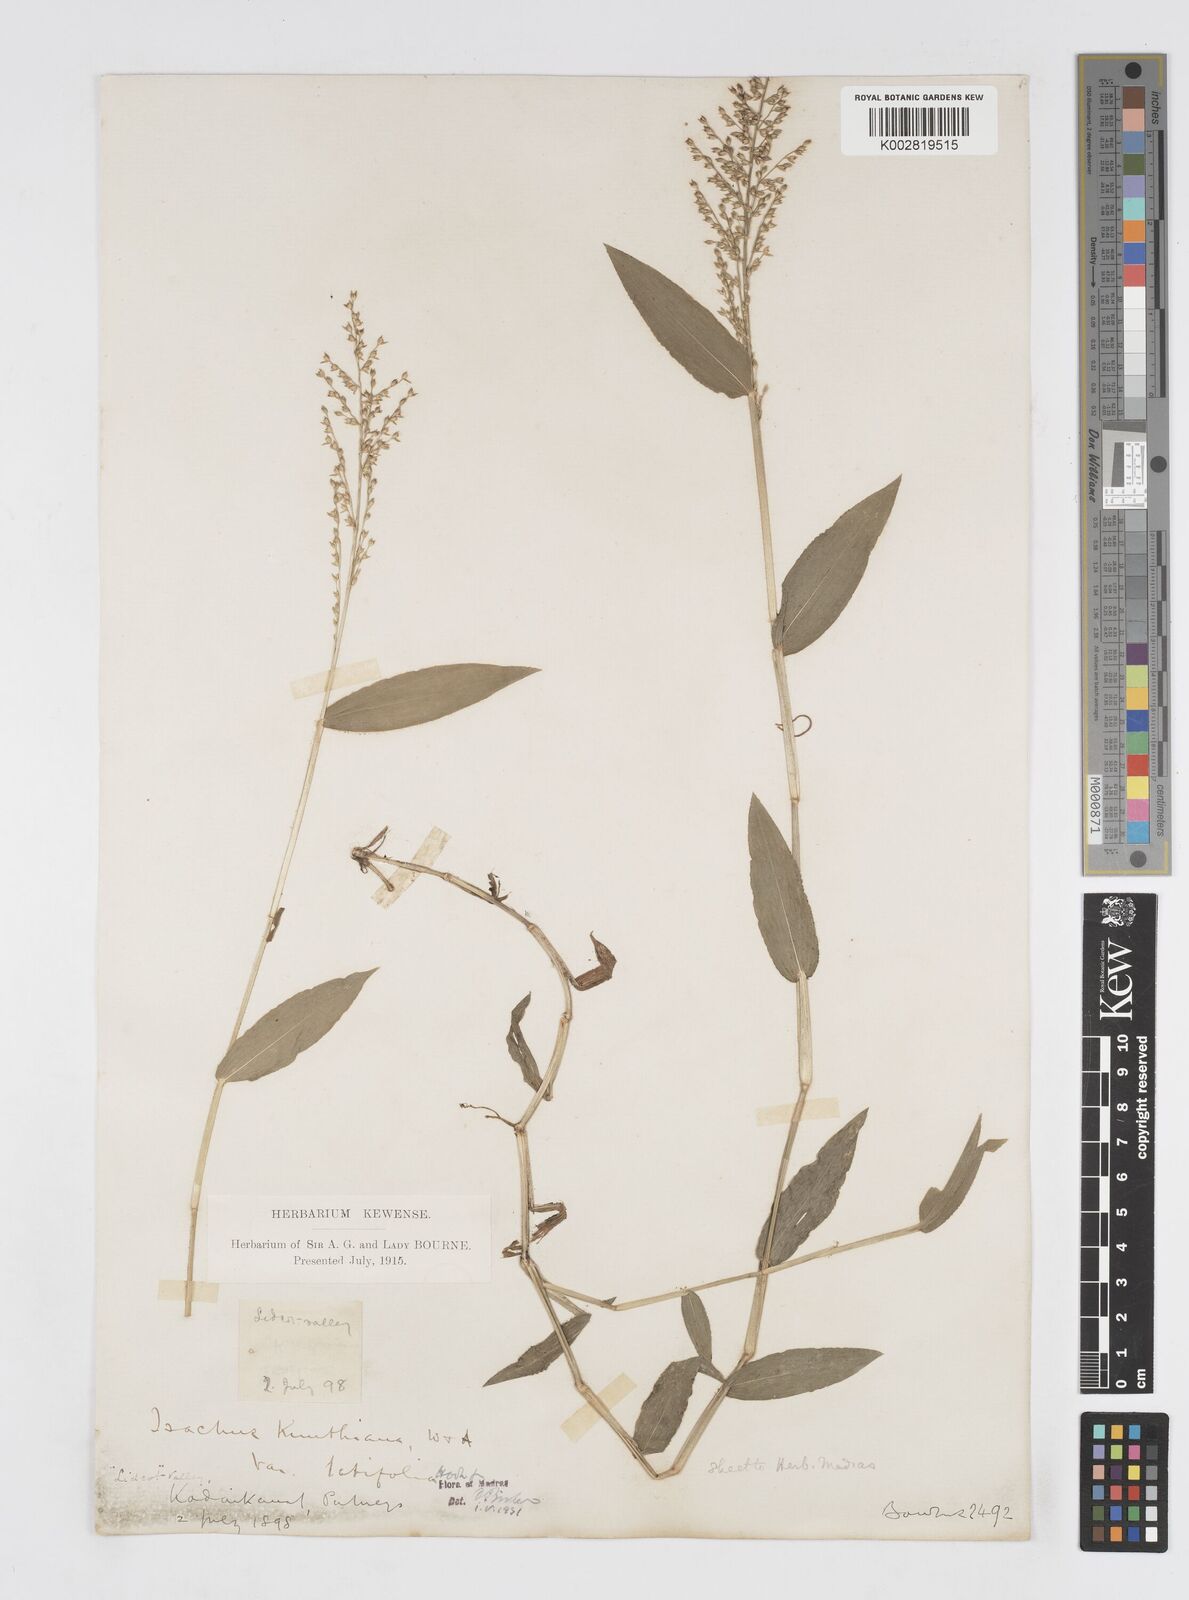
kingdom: Plantae
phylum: Tracheophyta
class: Liliopsida
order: Poales
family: Poaceae
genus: Isachne
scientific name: Isachne kunthiana
